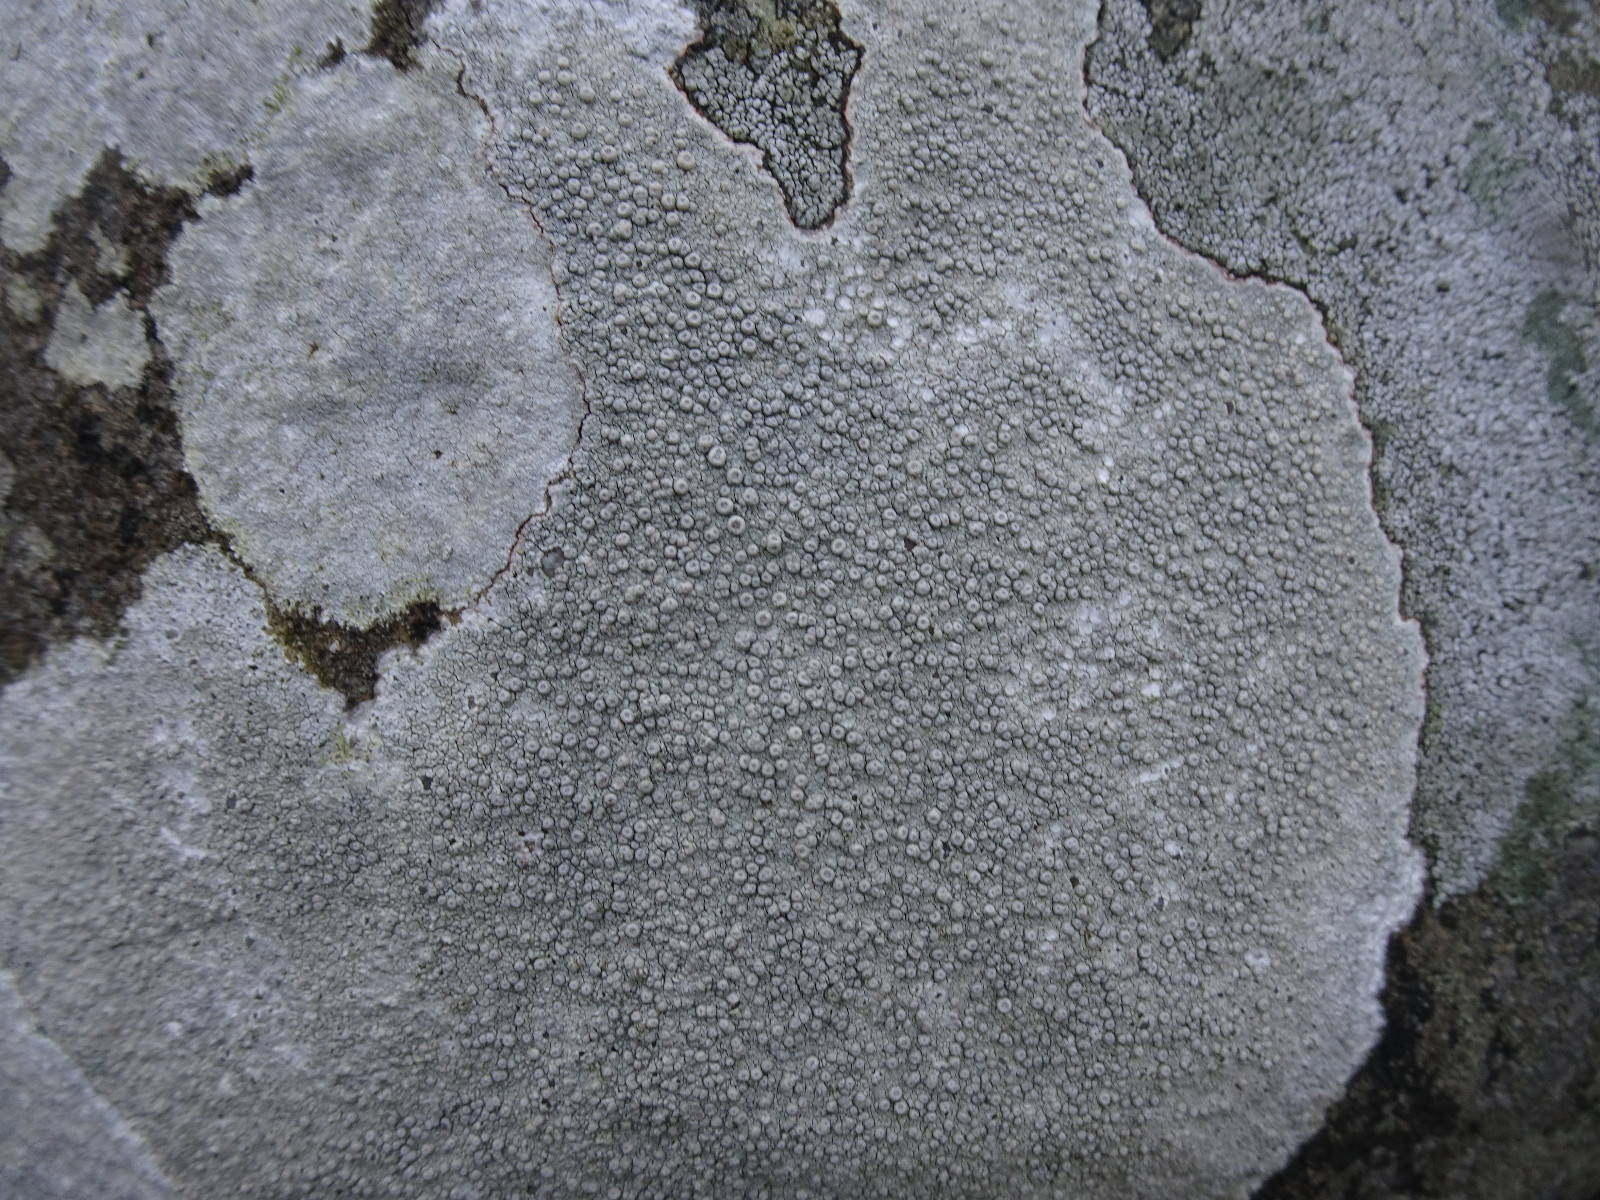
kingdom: Fungi
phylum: Ascomycota
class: Lecanoromycetes
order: Pertusariales
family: Ochrolechiaceae
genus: Ochrolechia
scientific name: Ochrolechia parella
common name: almindelig blegskivelav
